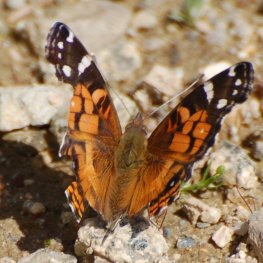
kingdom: Animalia
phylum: Arthropoda
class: Insecta
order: Lepidoptera
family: Nymphalidae
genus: Vanessa
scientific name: Vanessa virginiensis
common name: American Lady
